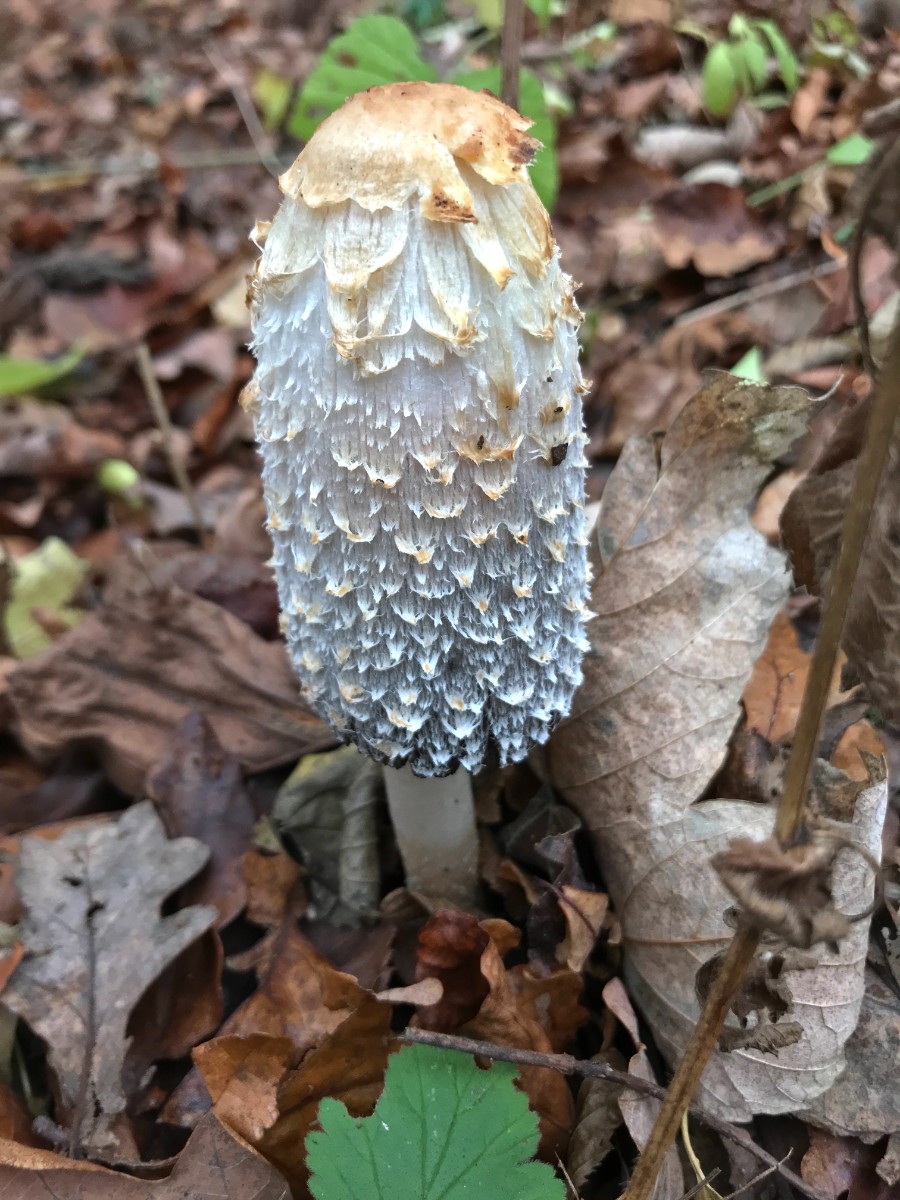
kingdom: Fungi
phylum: Basidiomycota
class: Agaricomycetes
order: Agaricales
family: Agaricaceae
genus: Coprinus
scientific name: Coprinus comatus
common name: stor parykhat
